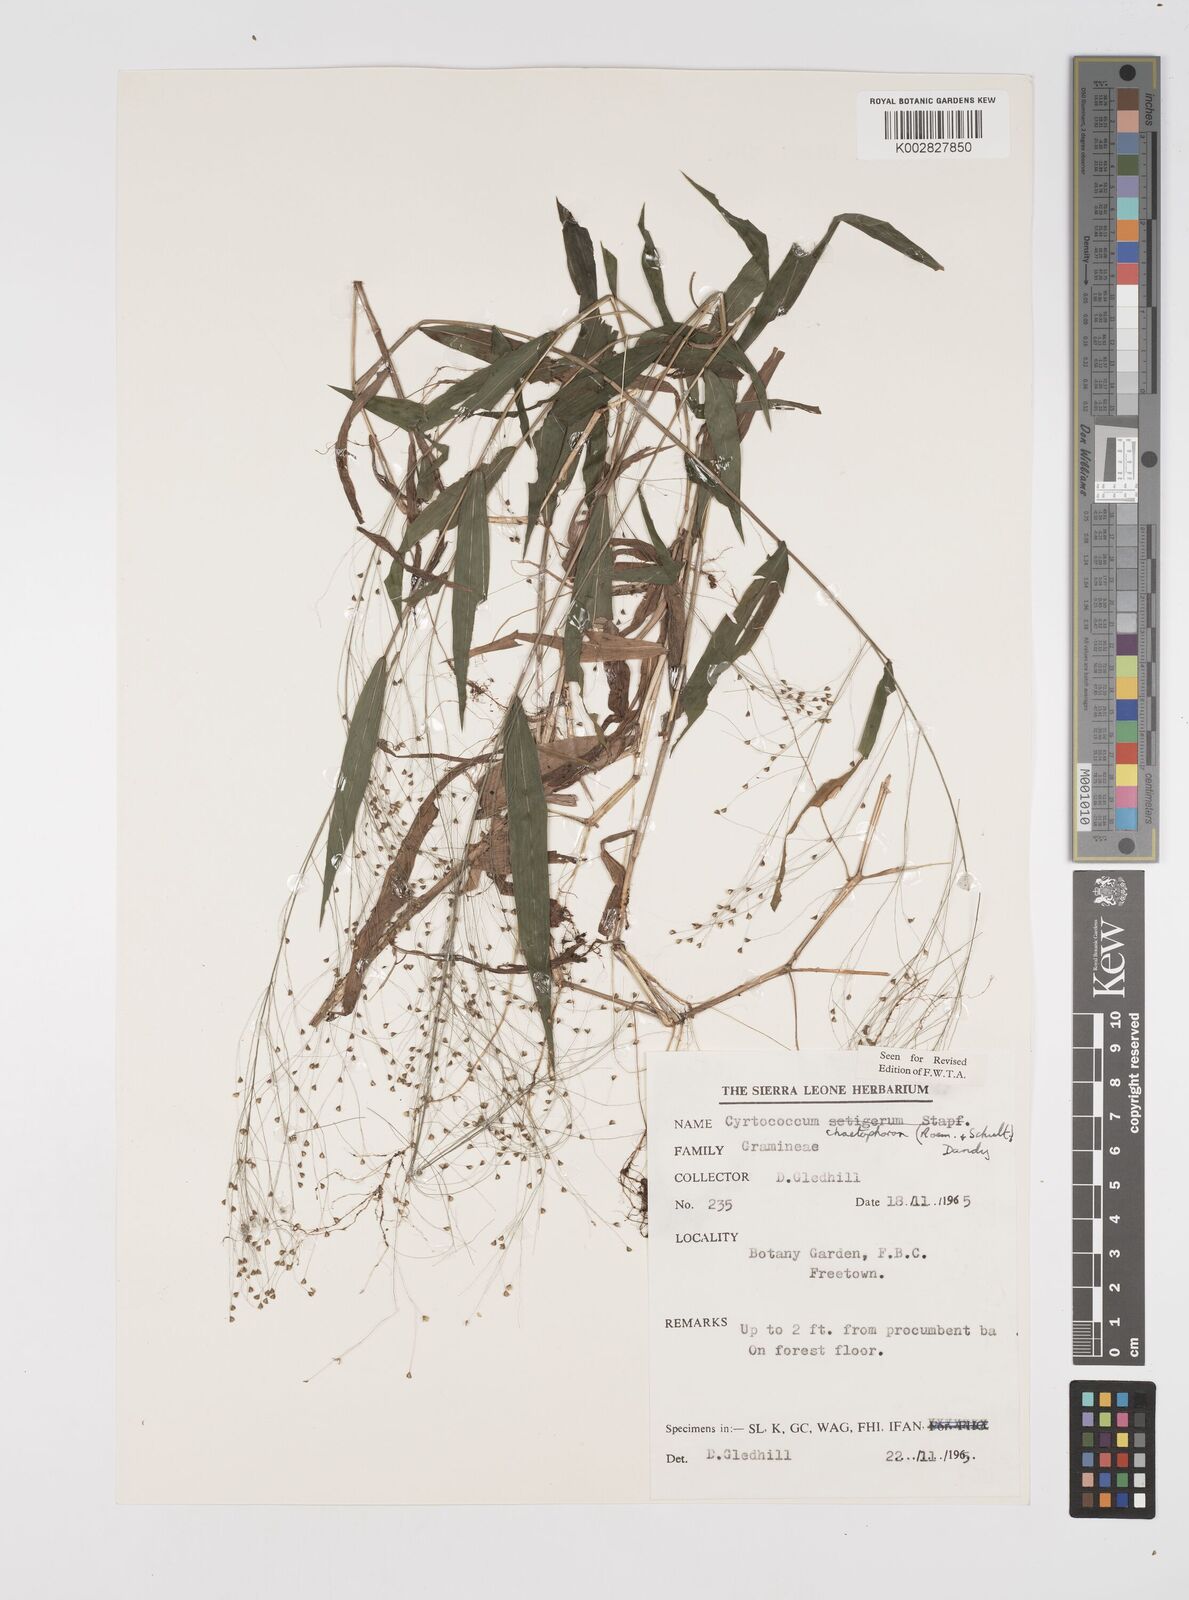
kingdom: Plantae
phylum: Tracheophyta
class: Liliopsida
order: Poales
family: Poaceae
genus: Cyrtococcum
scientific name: Cyrtococcum chaetophoron
